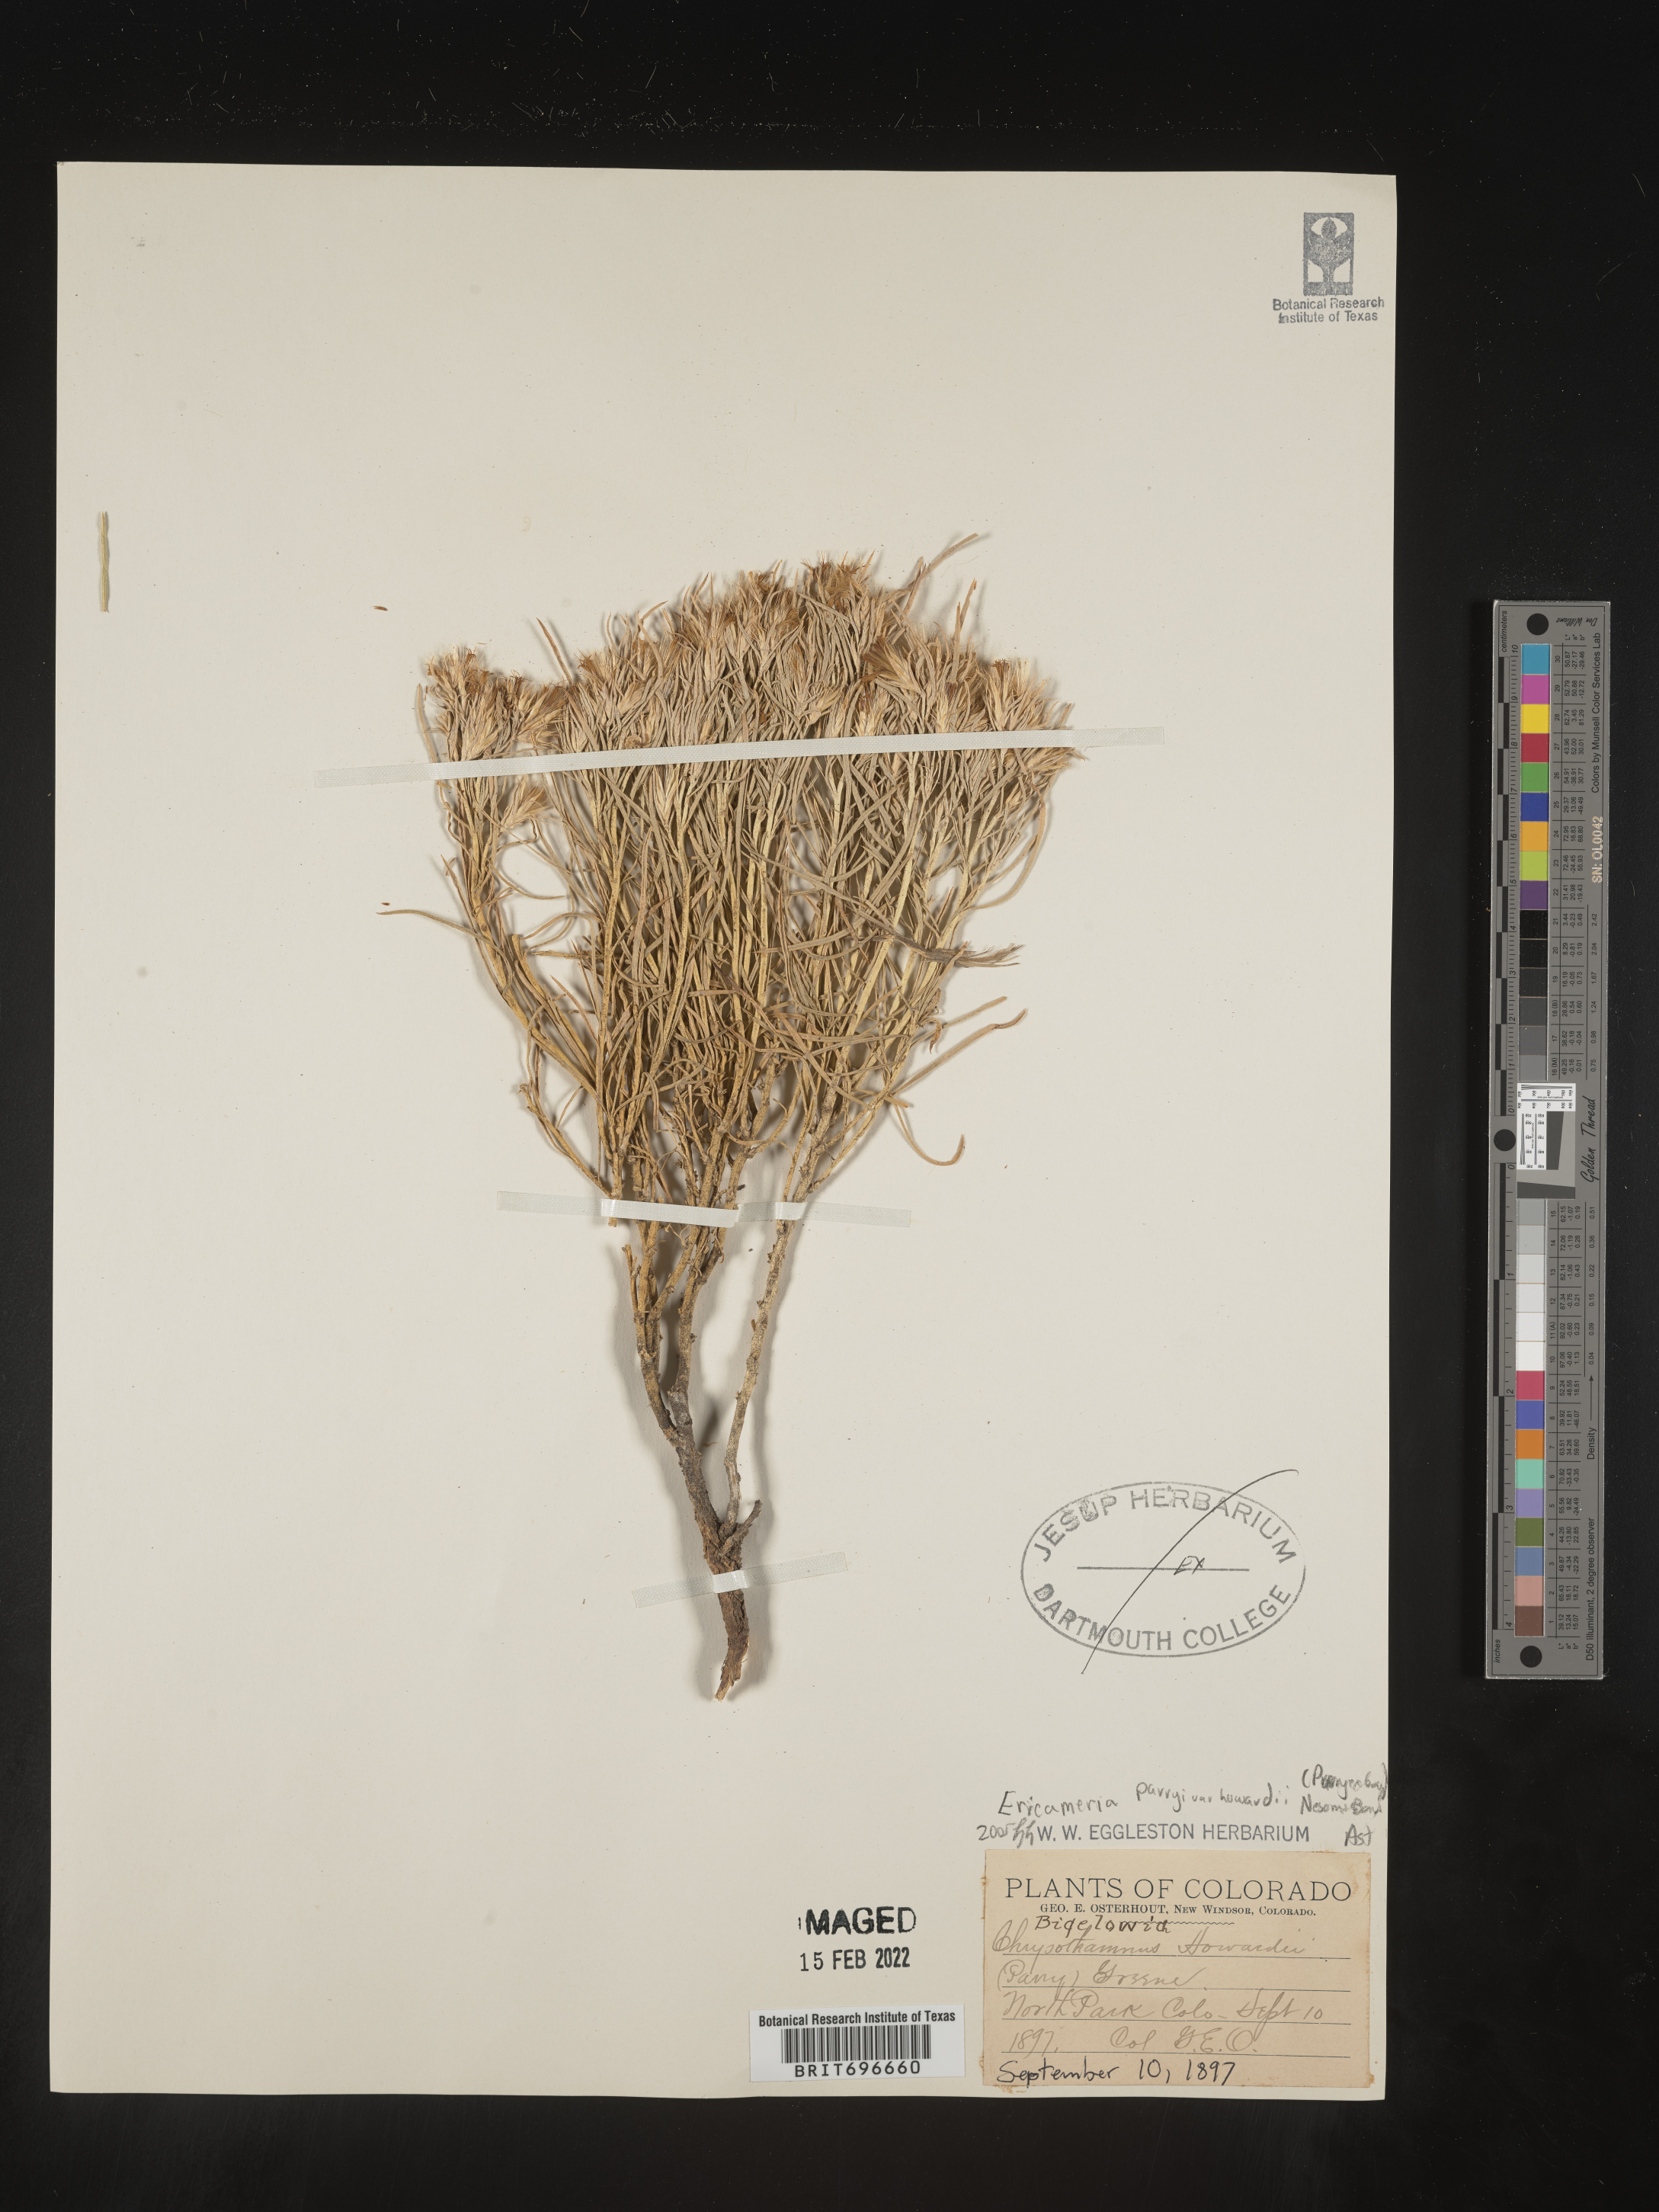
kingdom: Plantae
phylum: Tracheophyta
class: Magnoliopsida
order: Asterales
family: Asteraceae
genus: Ericameria
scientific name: Ericameria parryi
